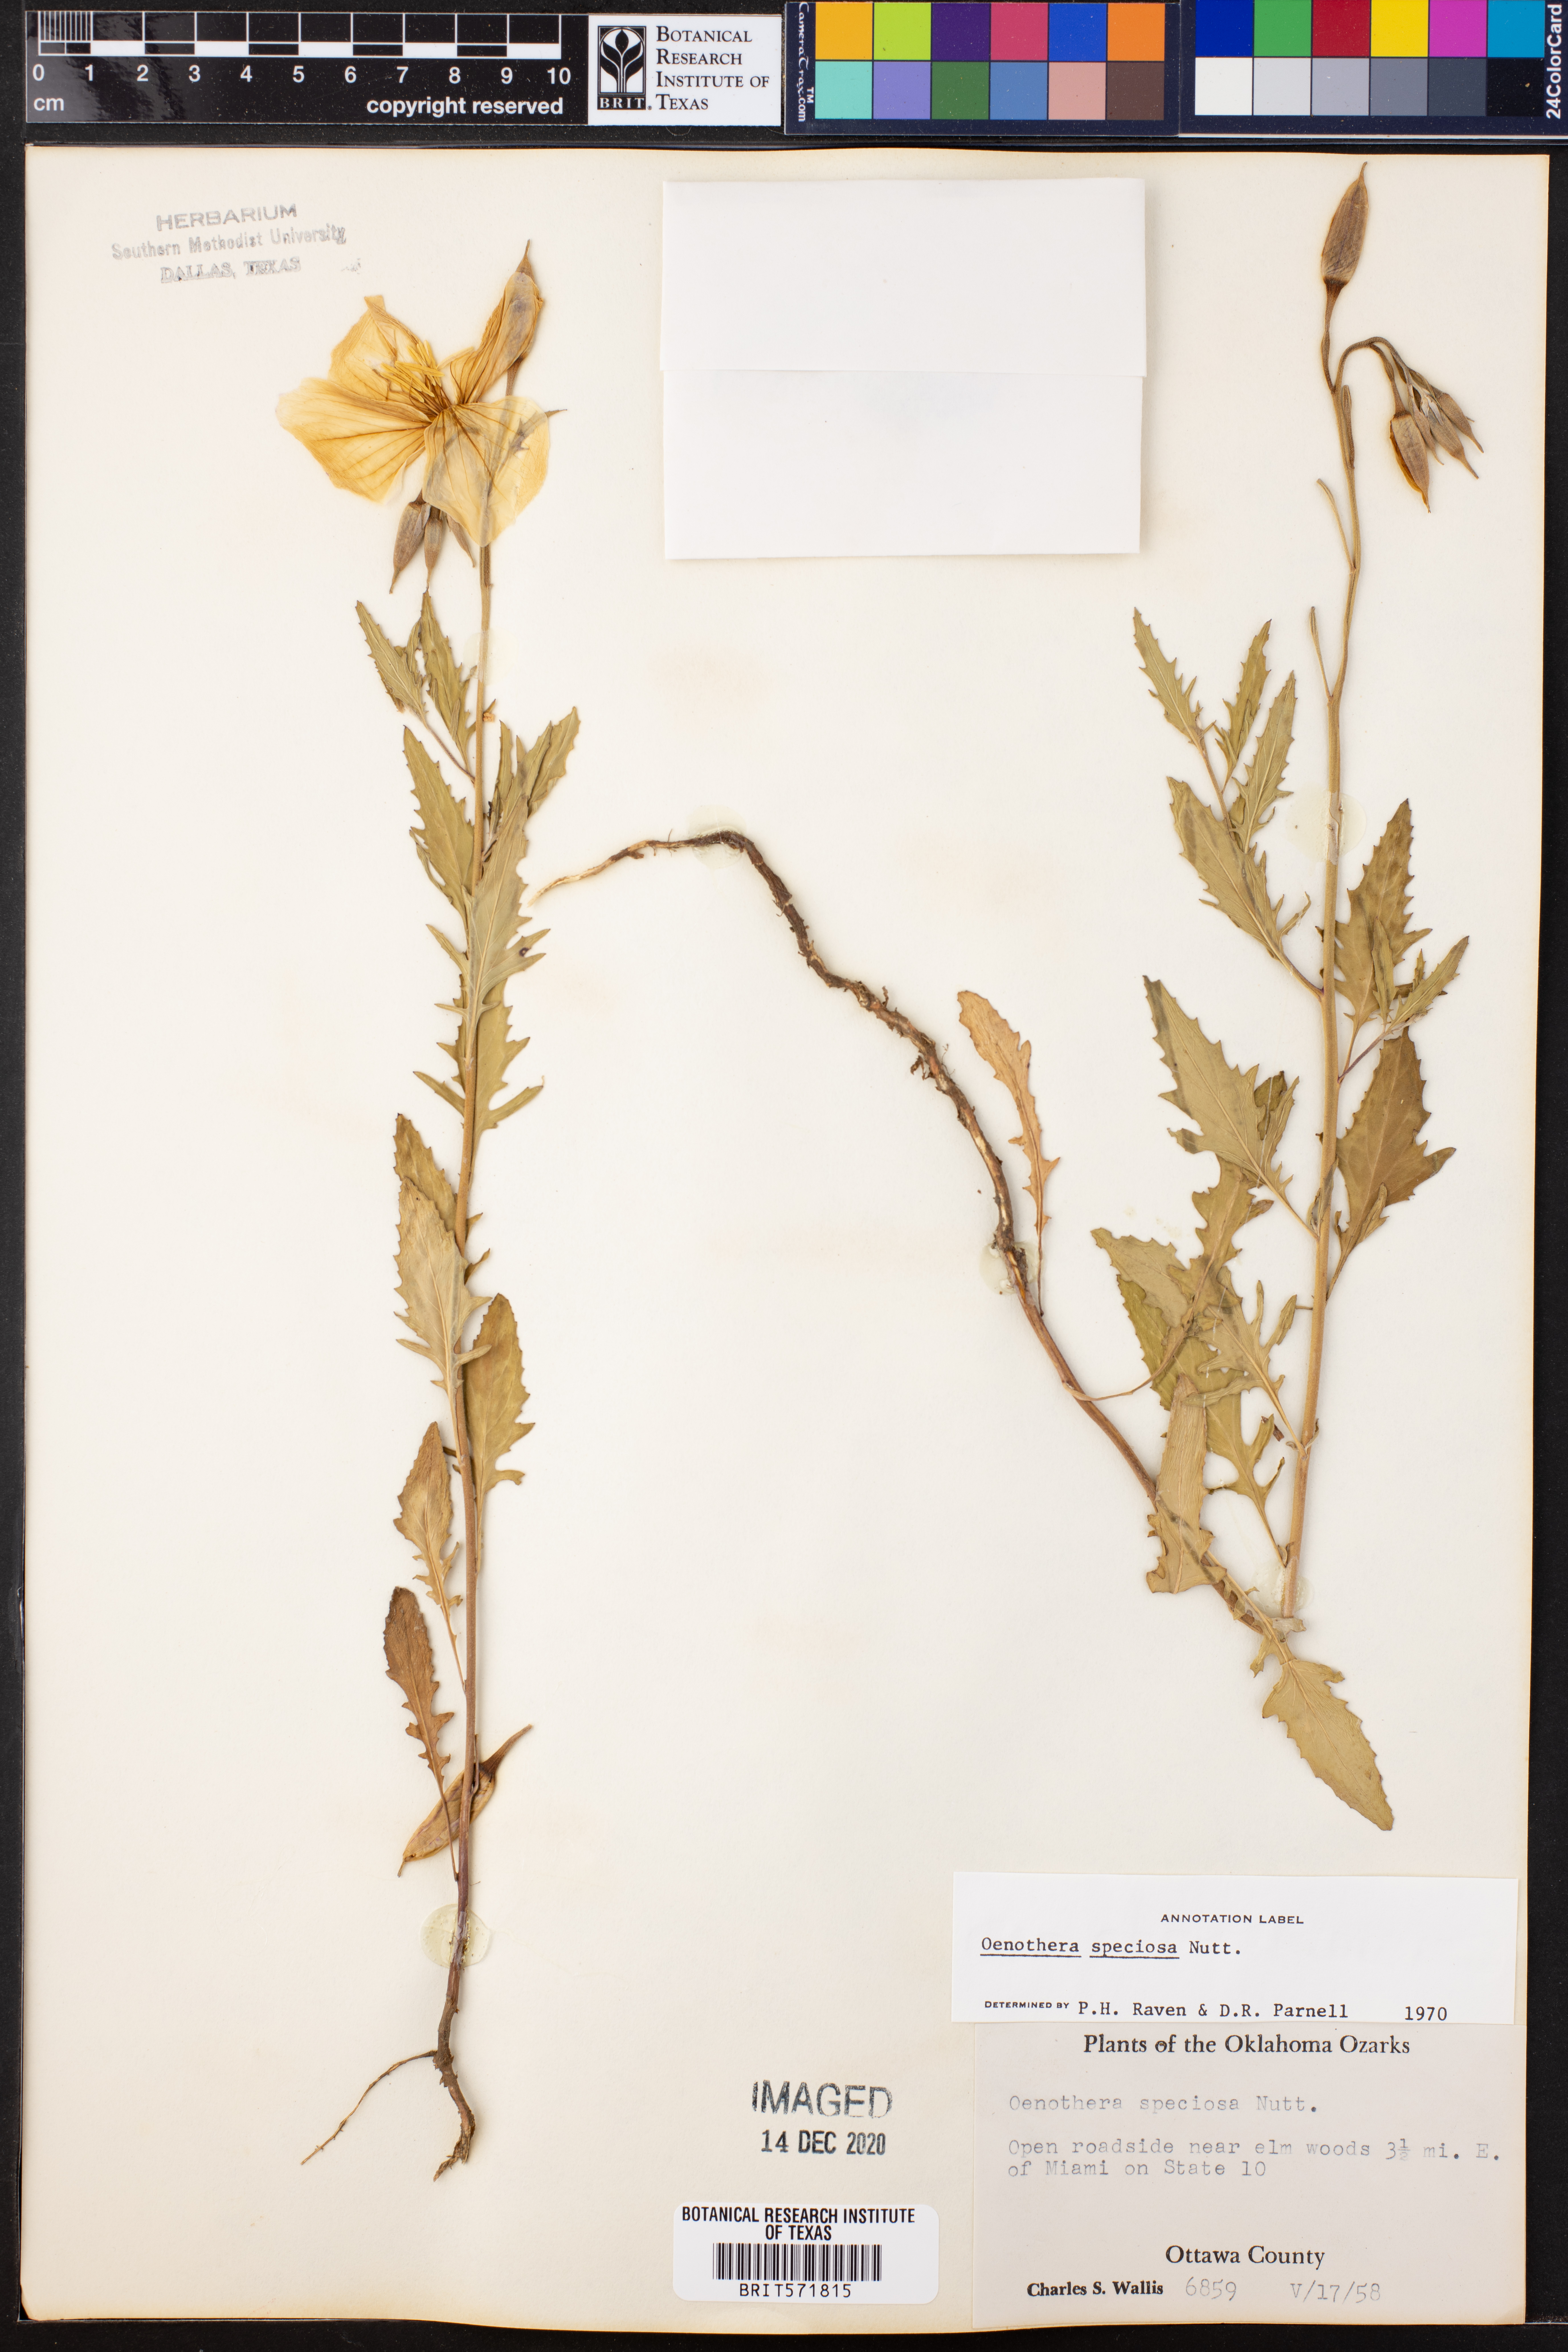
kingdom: Plantae
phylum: Tracheophyta
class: Magnoliopsida
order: Myrtales
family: Onagraceae
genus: Oenothera
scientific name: Oenothera speciosa
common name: White evening-primrose
